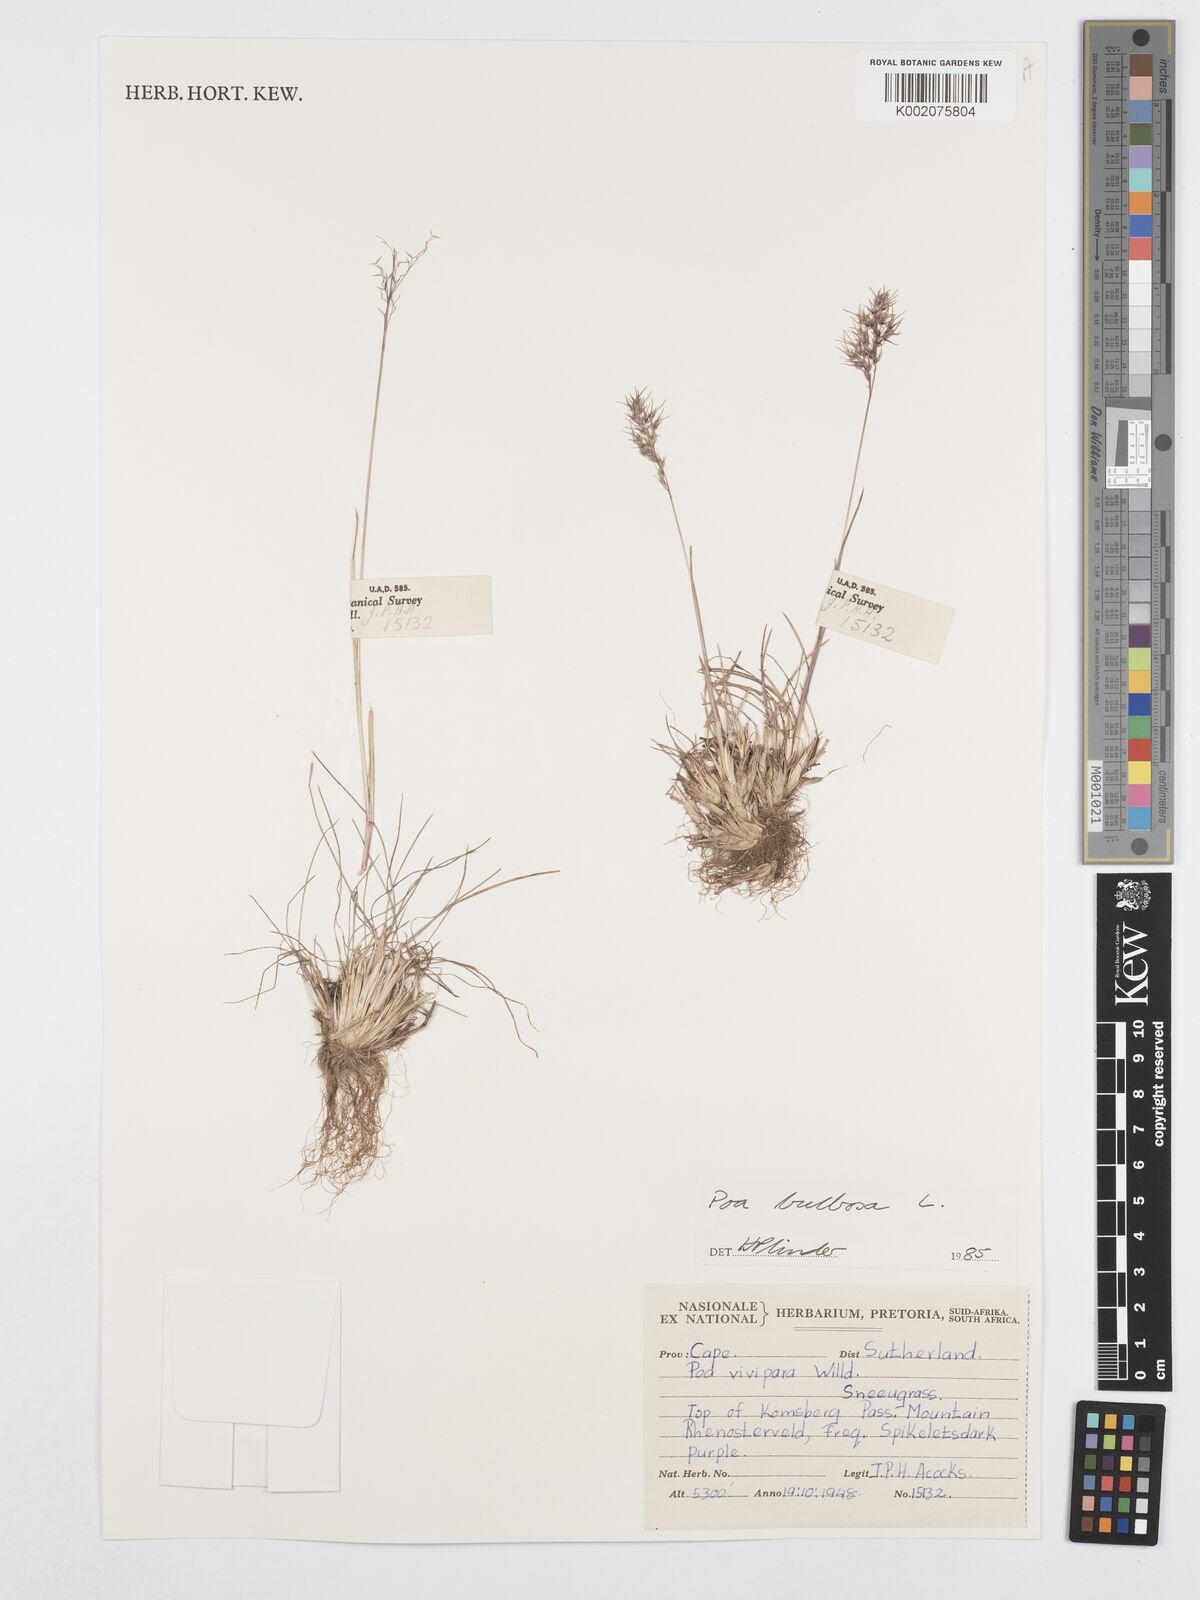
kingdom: Plantae
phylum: Tracheophyta
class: Liliopsida
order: Poales
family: Poaceae
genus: Poa
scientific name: Poa bulbosa
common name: Bulbous bluegrass
